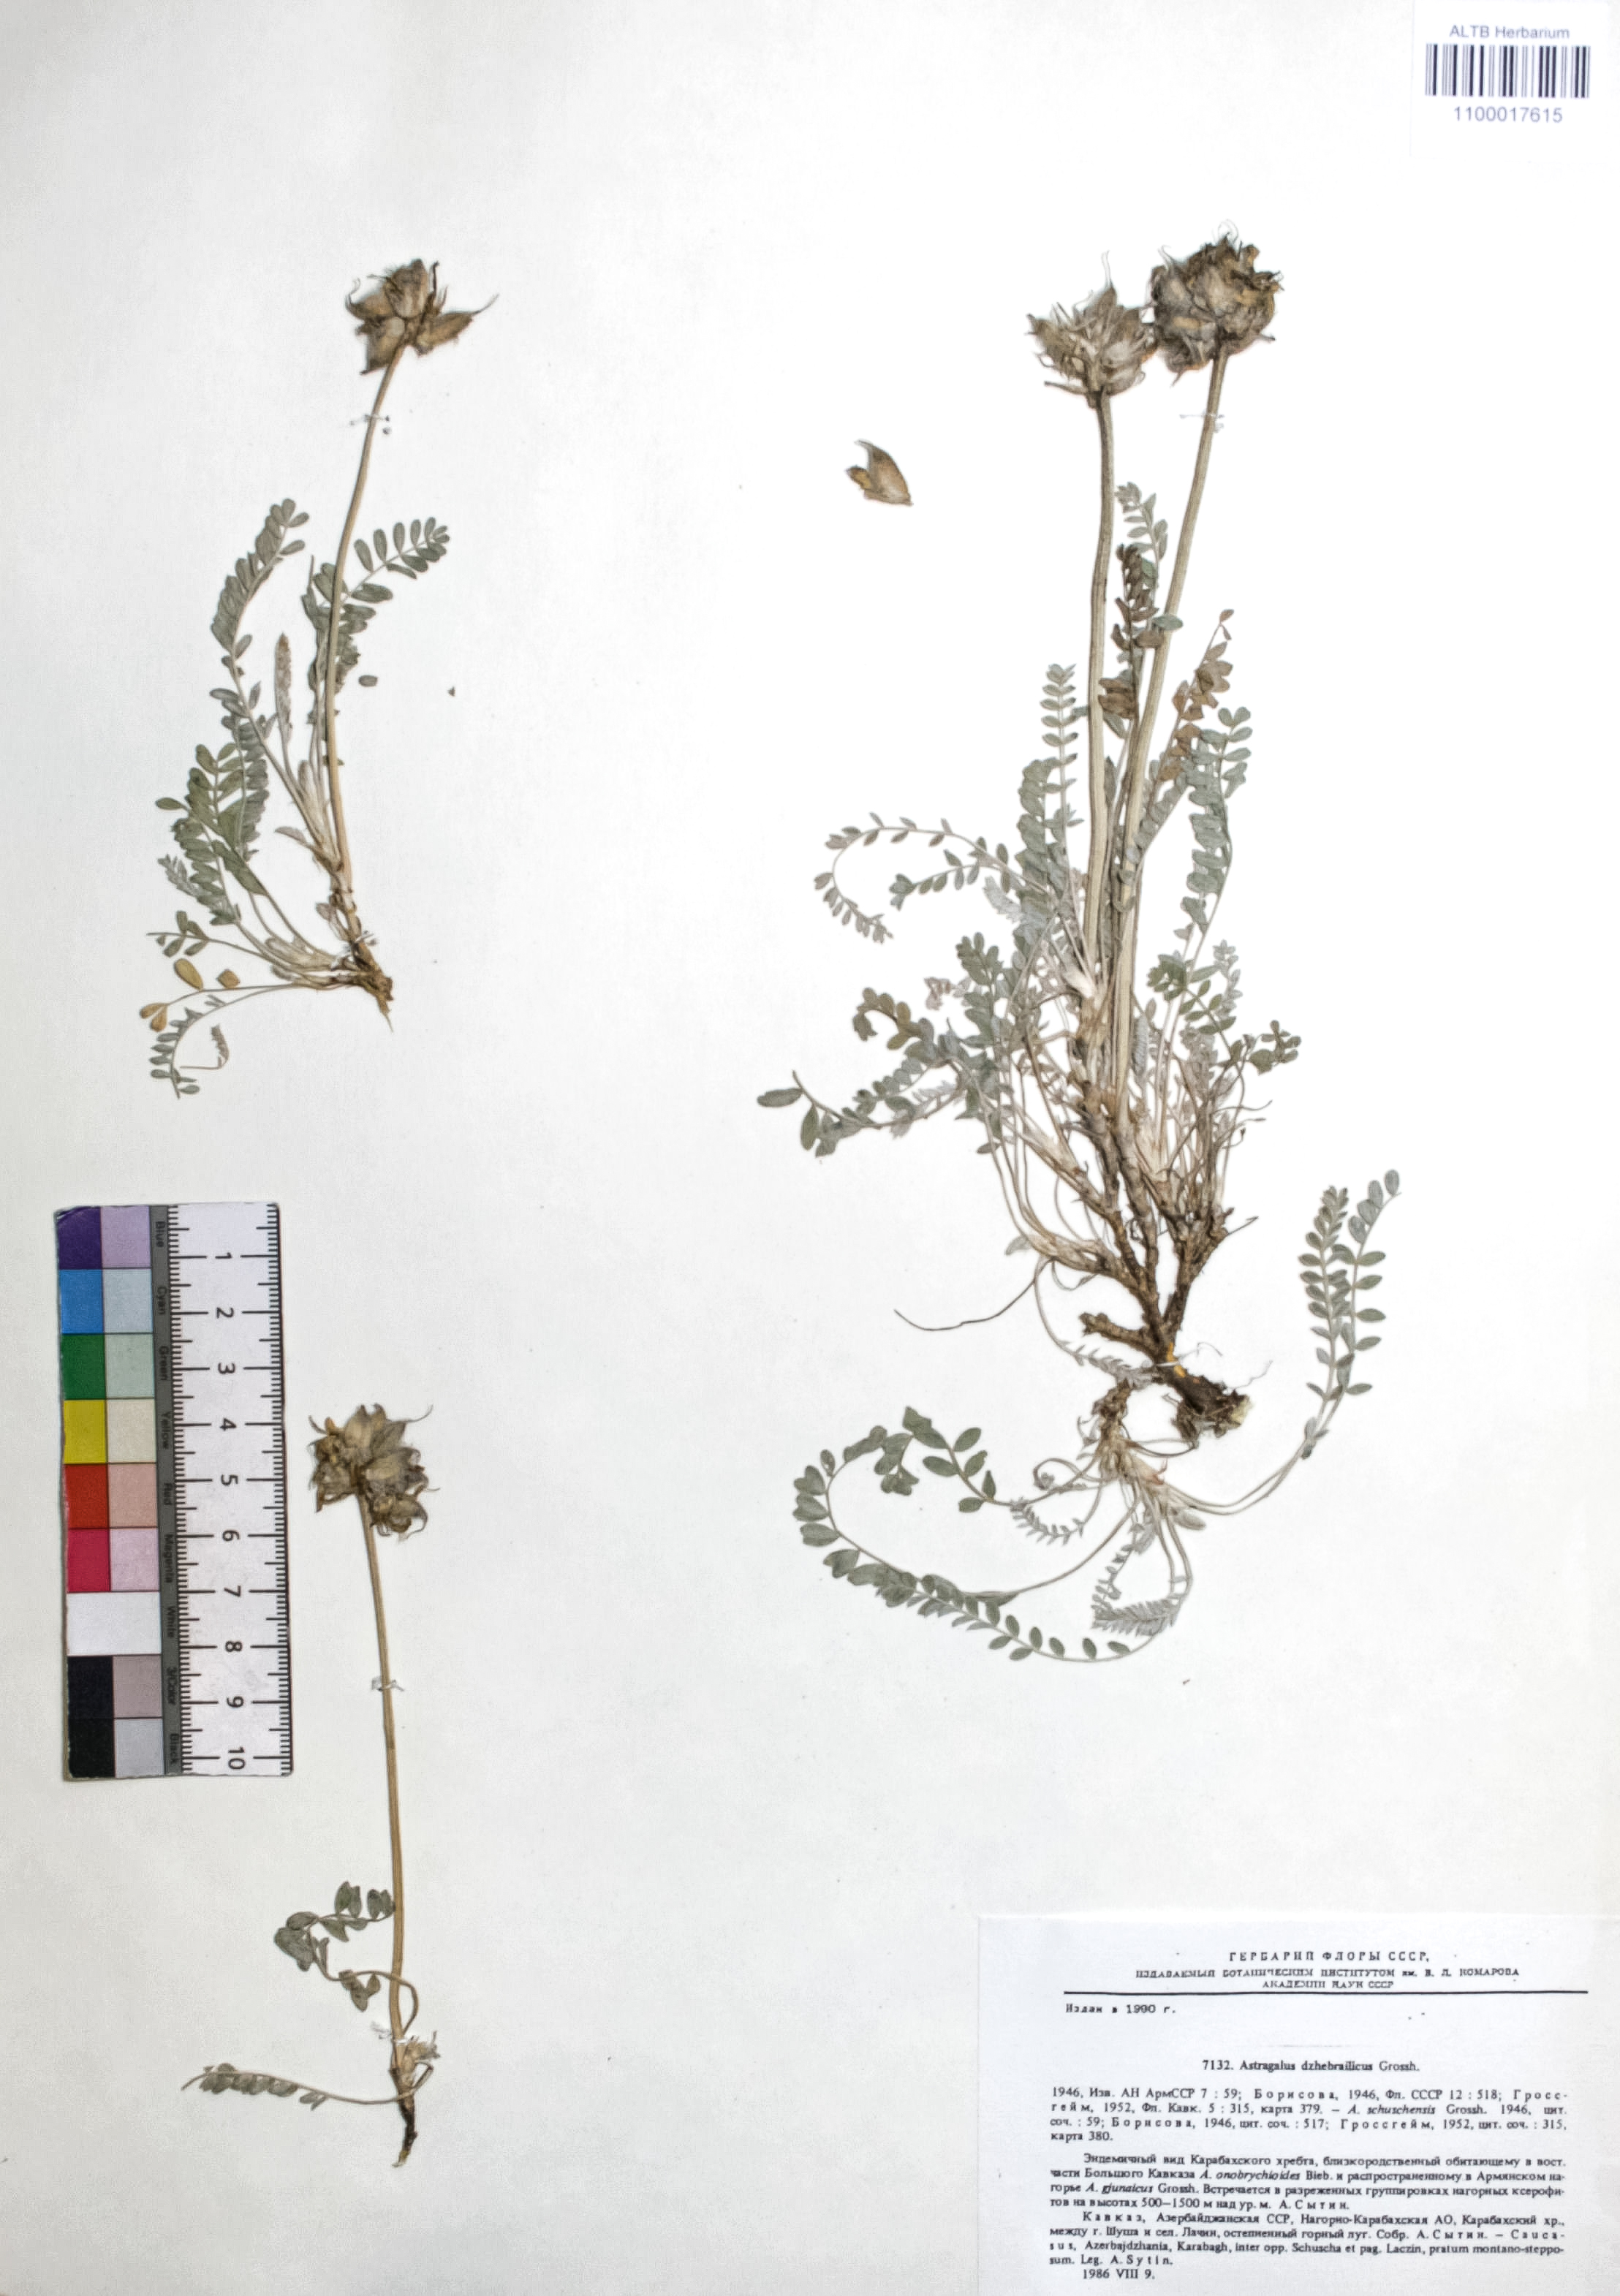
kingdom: Plantae
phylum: Tracheophyta
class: Magnoliopsida
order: Fabales
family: Fabaceae
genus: Astragalus
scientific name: Astragalus dzhebrailicus
